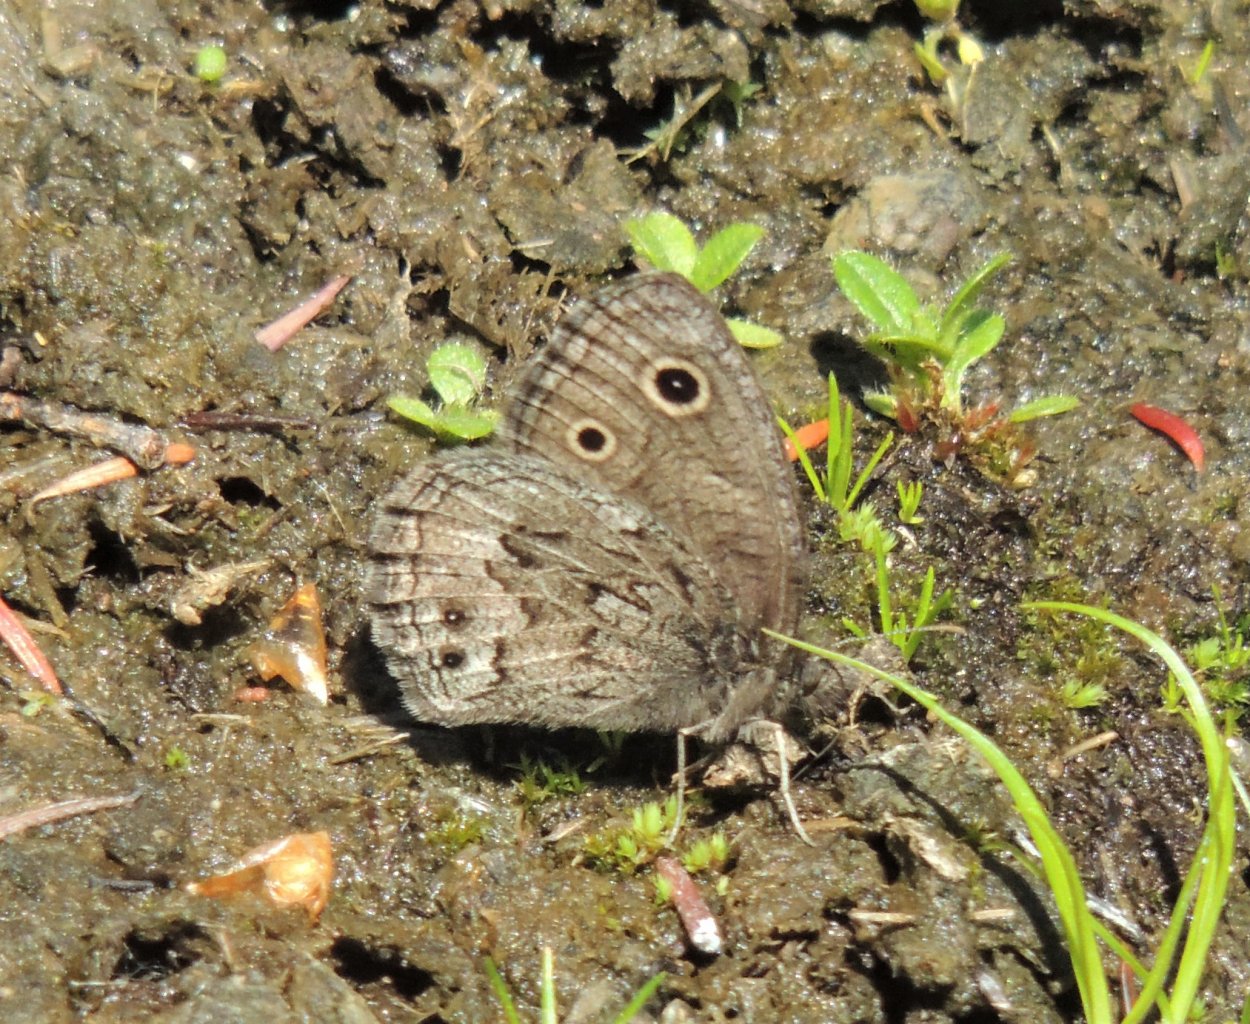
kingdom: Animalia
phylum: Arthropoda
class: Insecta
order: Lepidoptera
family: Nymphalidae
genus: Cercyonis
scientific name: Cercyonis oetus
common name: Small Wood-Nymph
